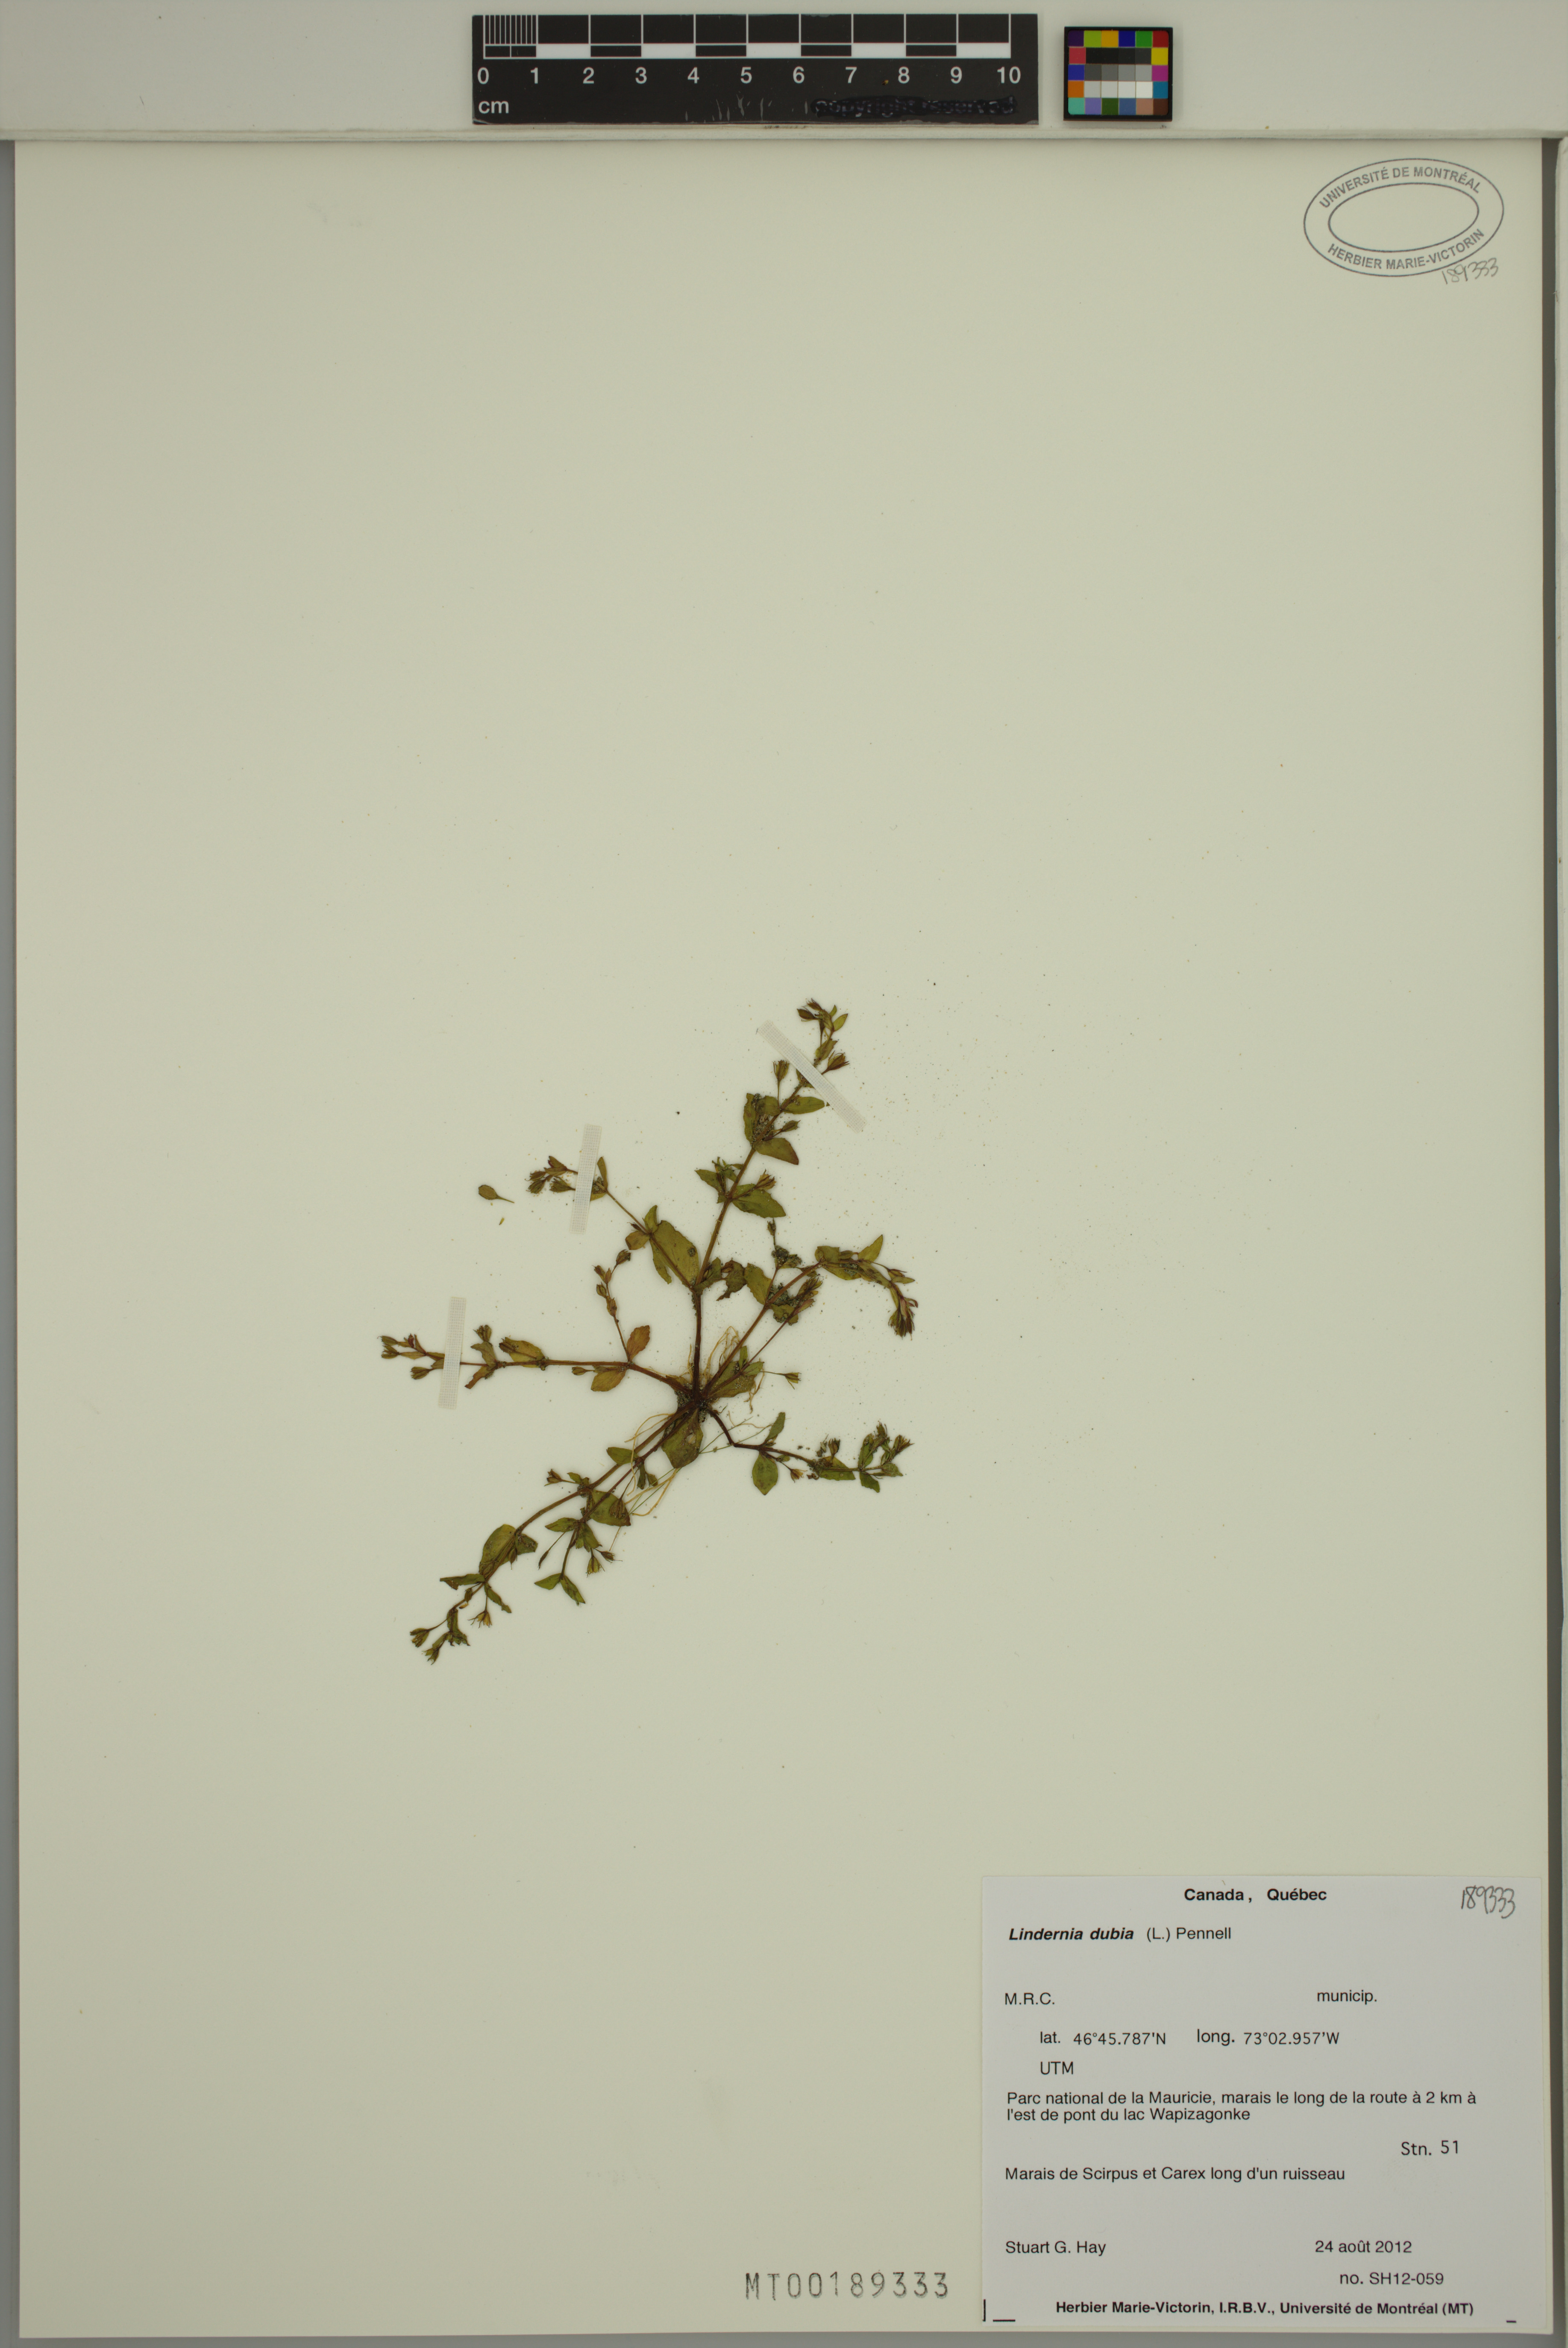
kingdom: Plantae
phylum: Tracheophyta
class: Magnoliopsida
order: Lamiales
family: Linderniaceae
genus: Lindernia
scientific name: Lindernia dubia
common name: Annual false pimpernel
